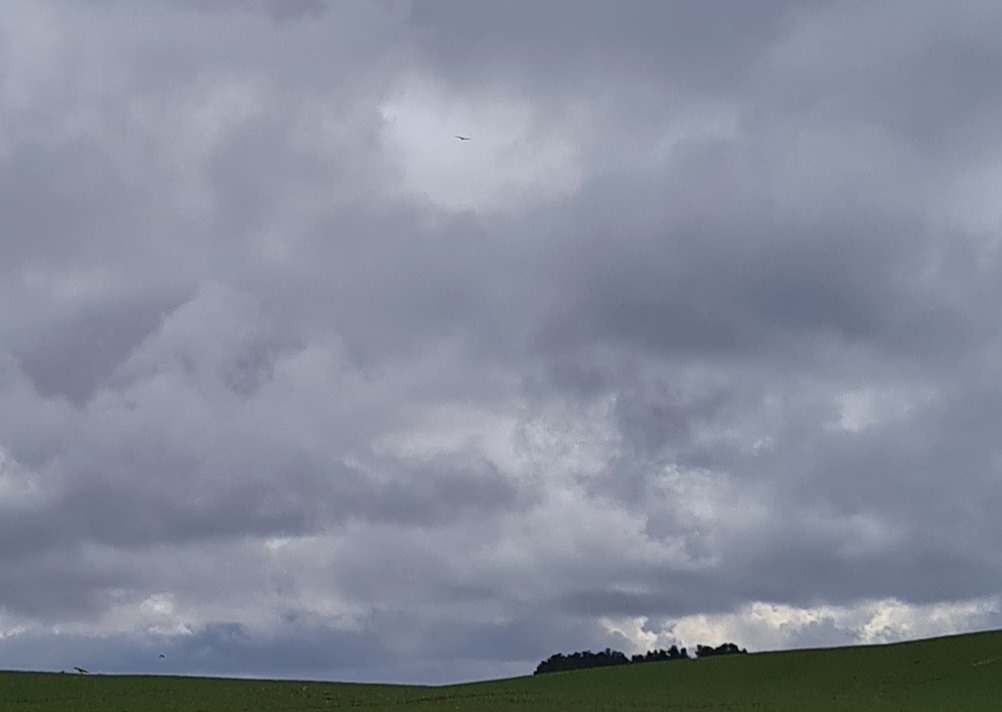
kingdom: Animalia
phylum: Chordata
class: Aves
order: Accipitriformes
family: Accipitridae
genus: Haliaeetus
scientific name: Haliaeetus albicilla
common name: Havørn
